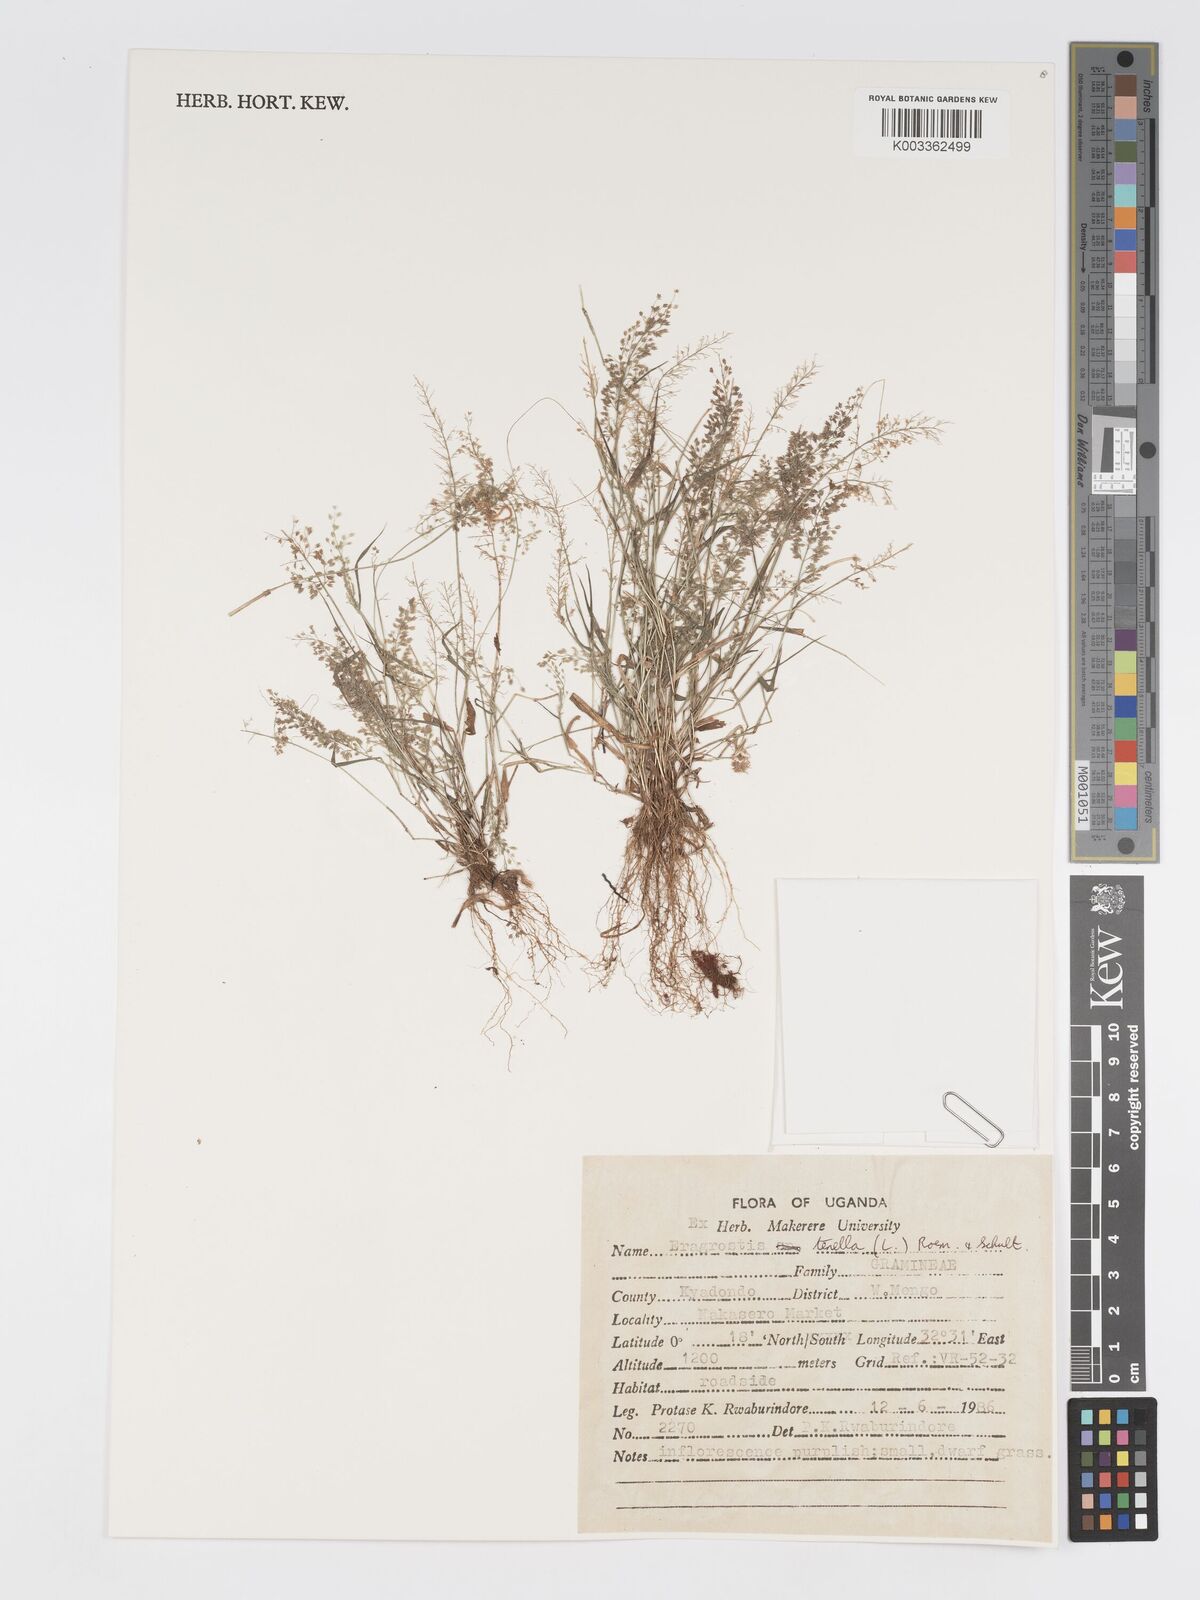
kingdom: Plantae
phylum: Tracheophyta
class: Liliopsida
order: Poales
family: Poaceae
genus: Eragrostis
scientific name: Eragrostis tenella
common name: Japanese lovegrass
